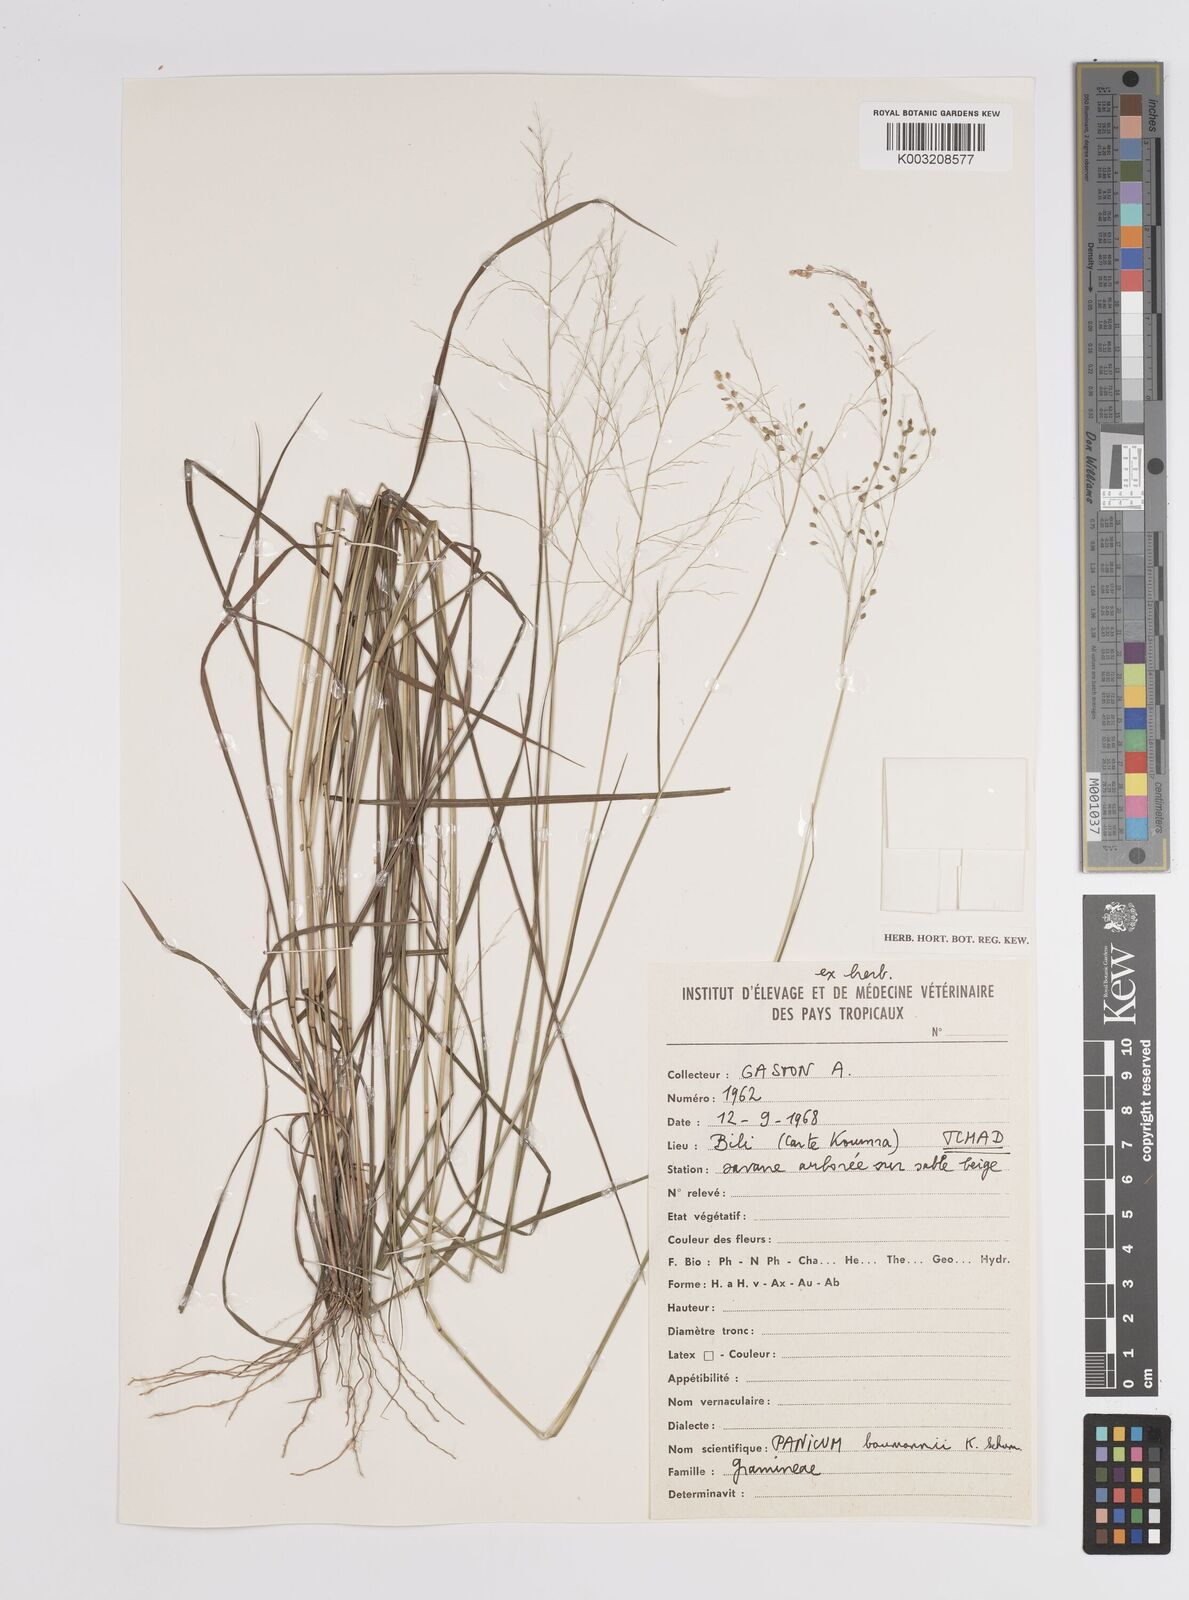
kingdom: Plantae
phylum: Tracheophyta
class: Liliopsida
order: Poales
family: Poaceae
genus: Trichanthecium
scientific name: Trichanthecium nervatum
